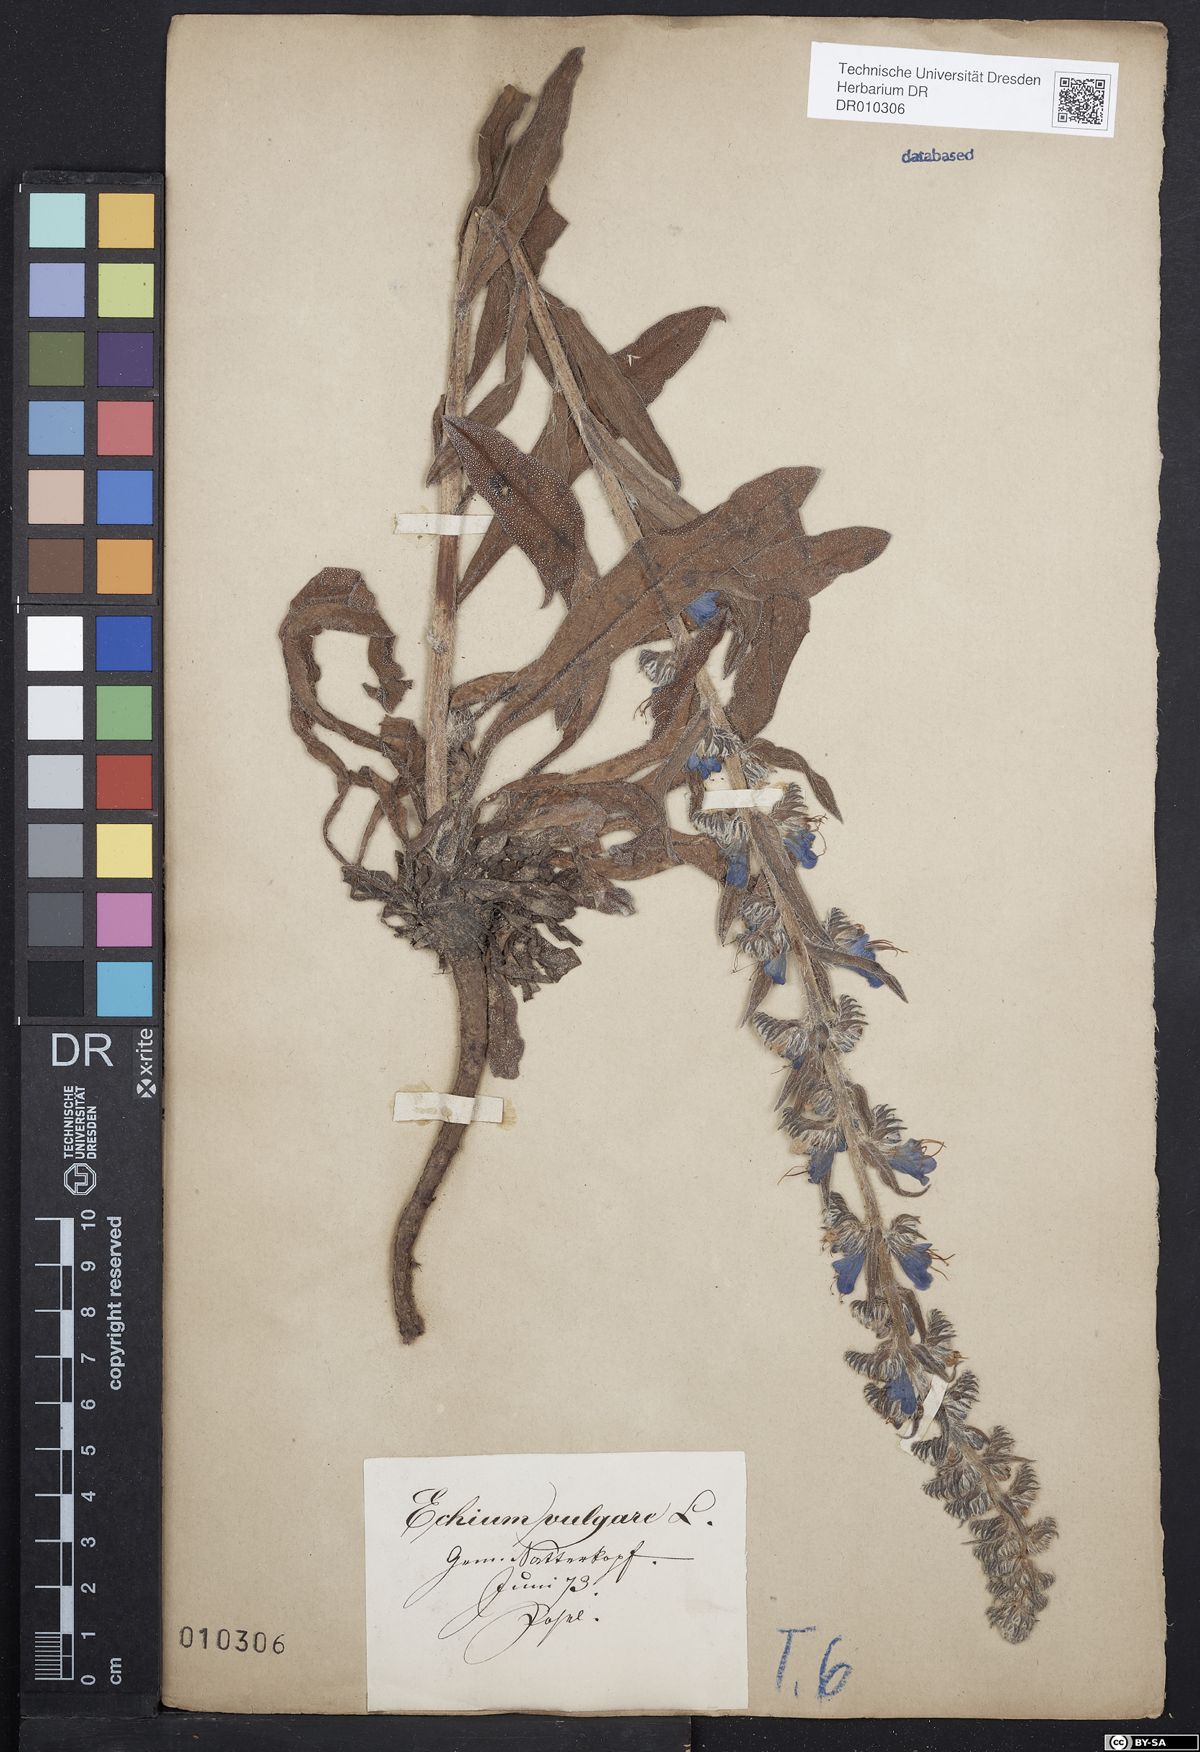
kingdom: Plantae
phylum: Tracheophyta
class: Magnoliopsida
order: Boraginales
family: Boraginaceae
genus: Echium
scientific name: Echium vulgare
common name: Common viper's bugloss
